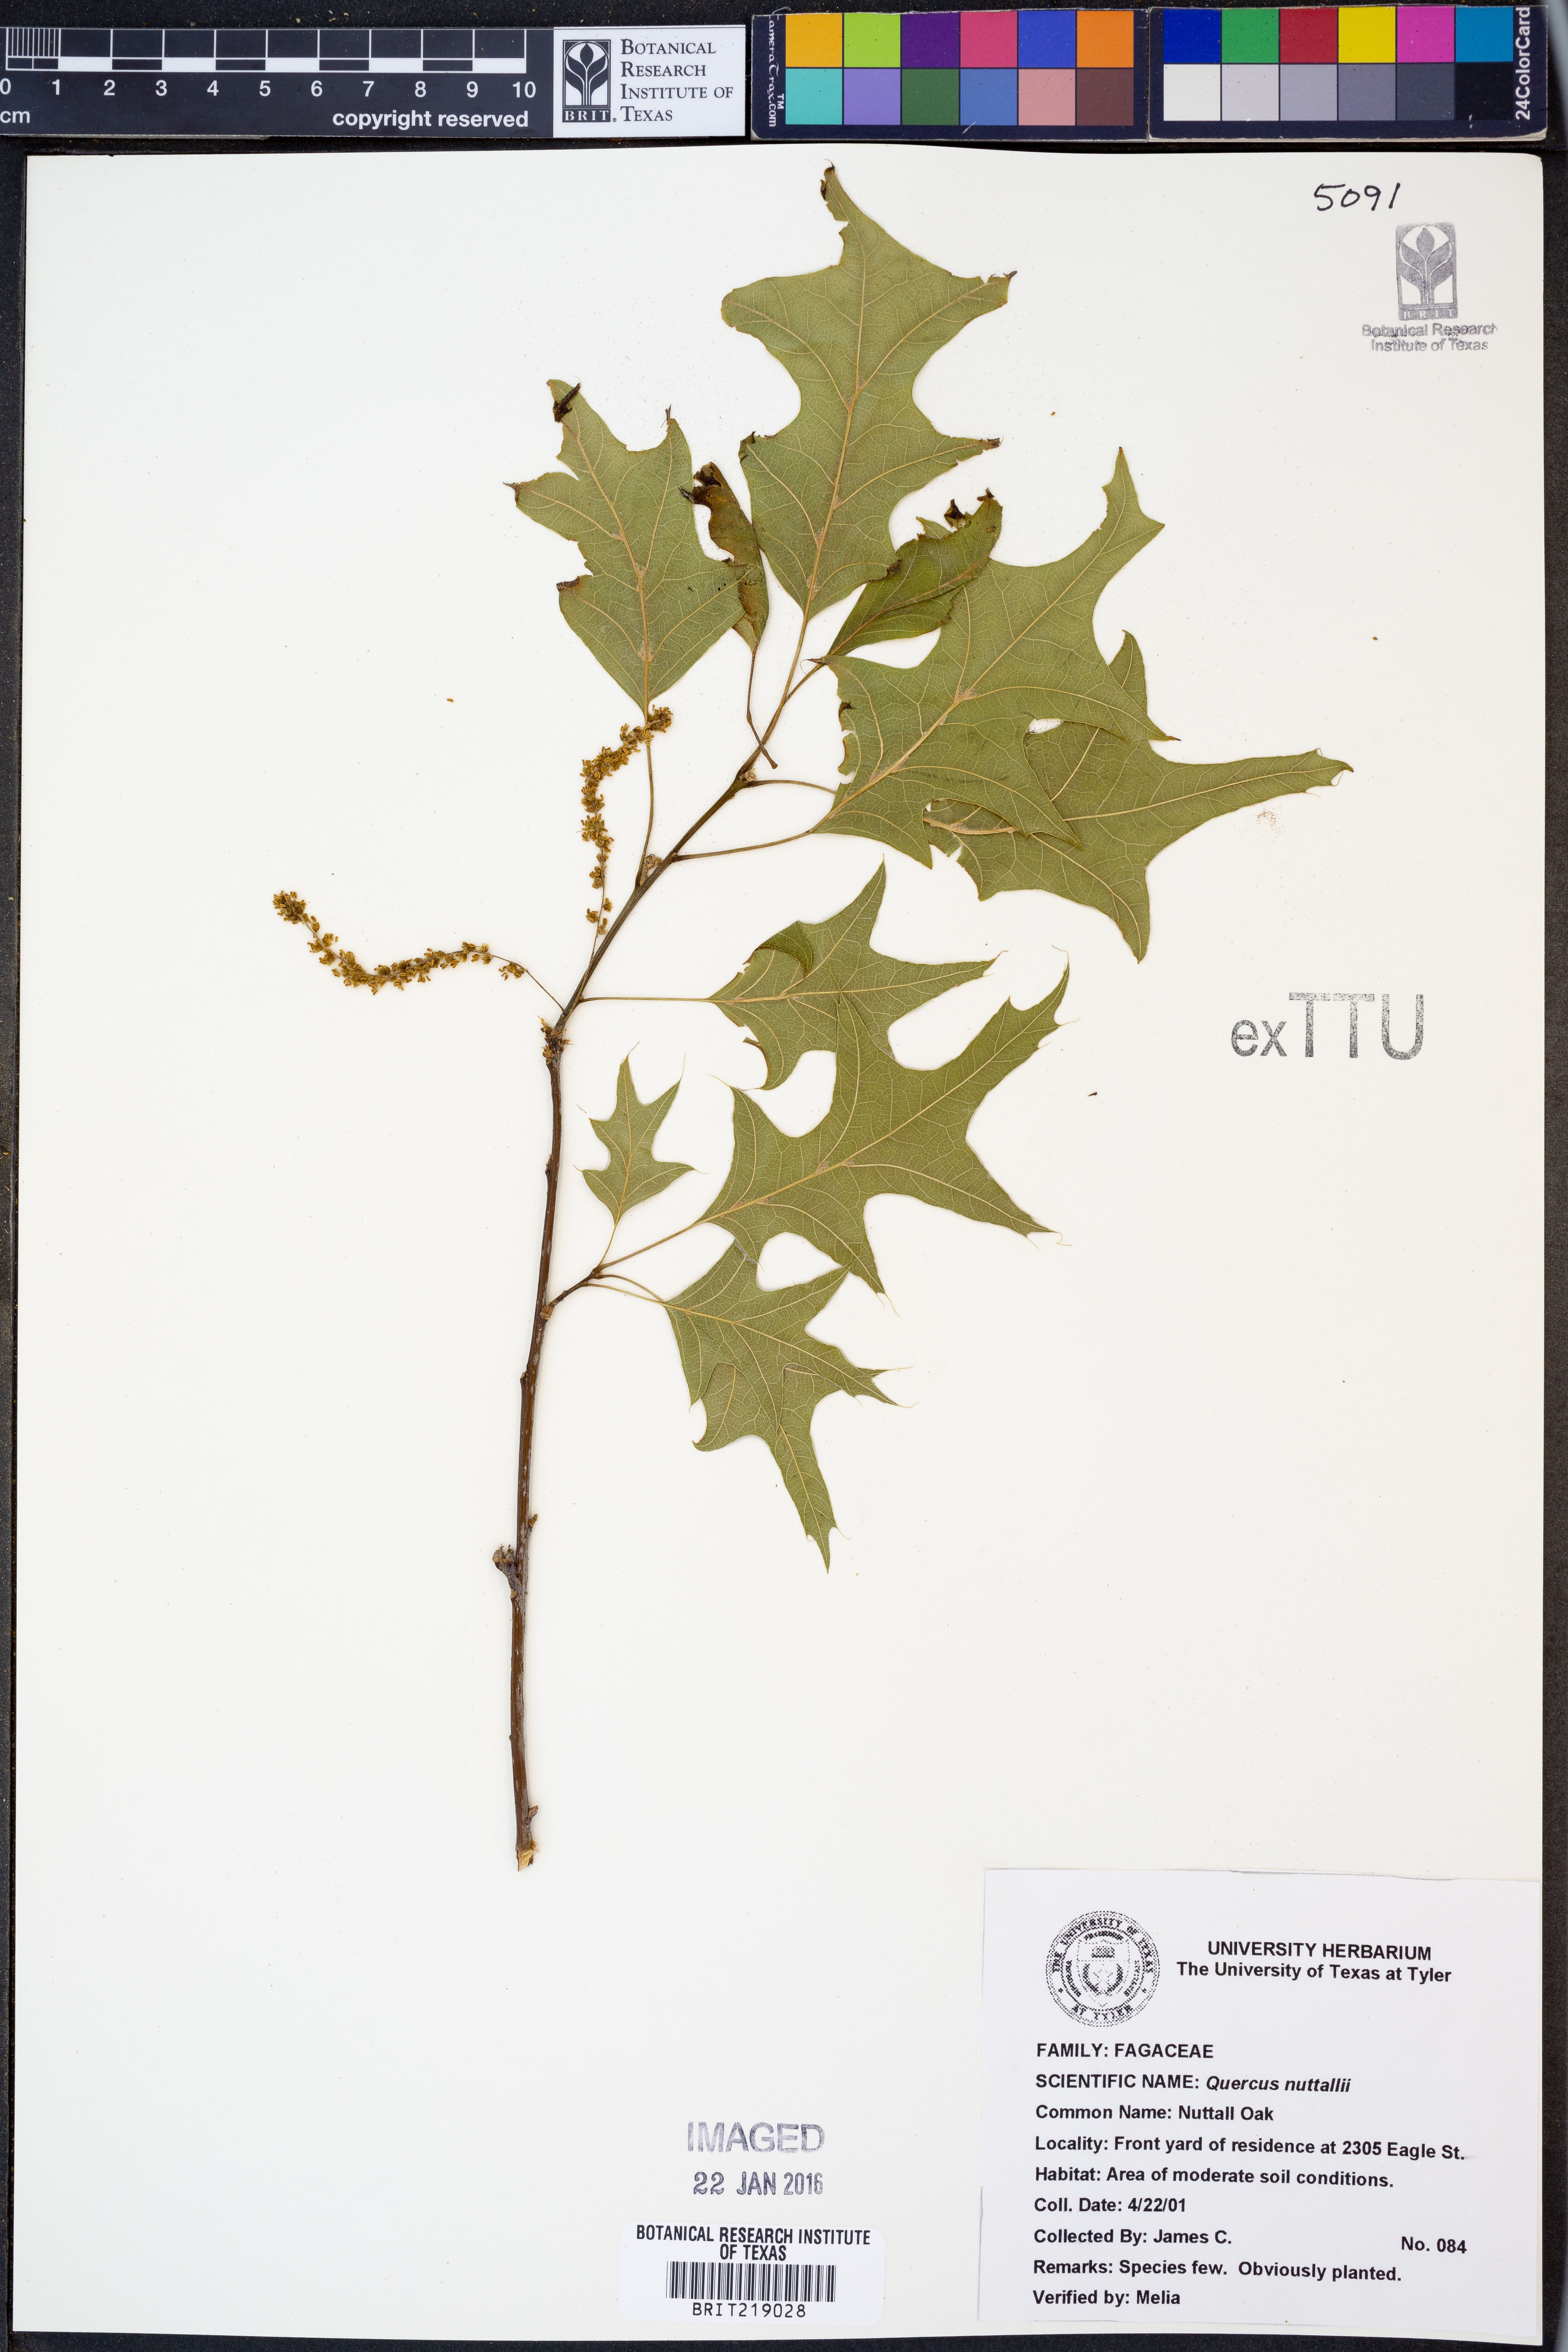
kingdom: Plantae
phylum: Tracheophyta
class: Magnoliopsida
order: Fagales
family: Fagaceae
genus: Quercus
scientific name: Quercus texana
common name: Nuttall oak
